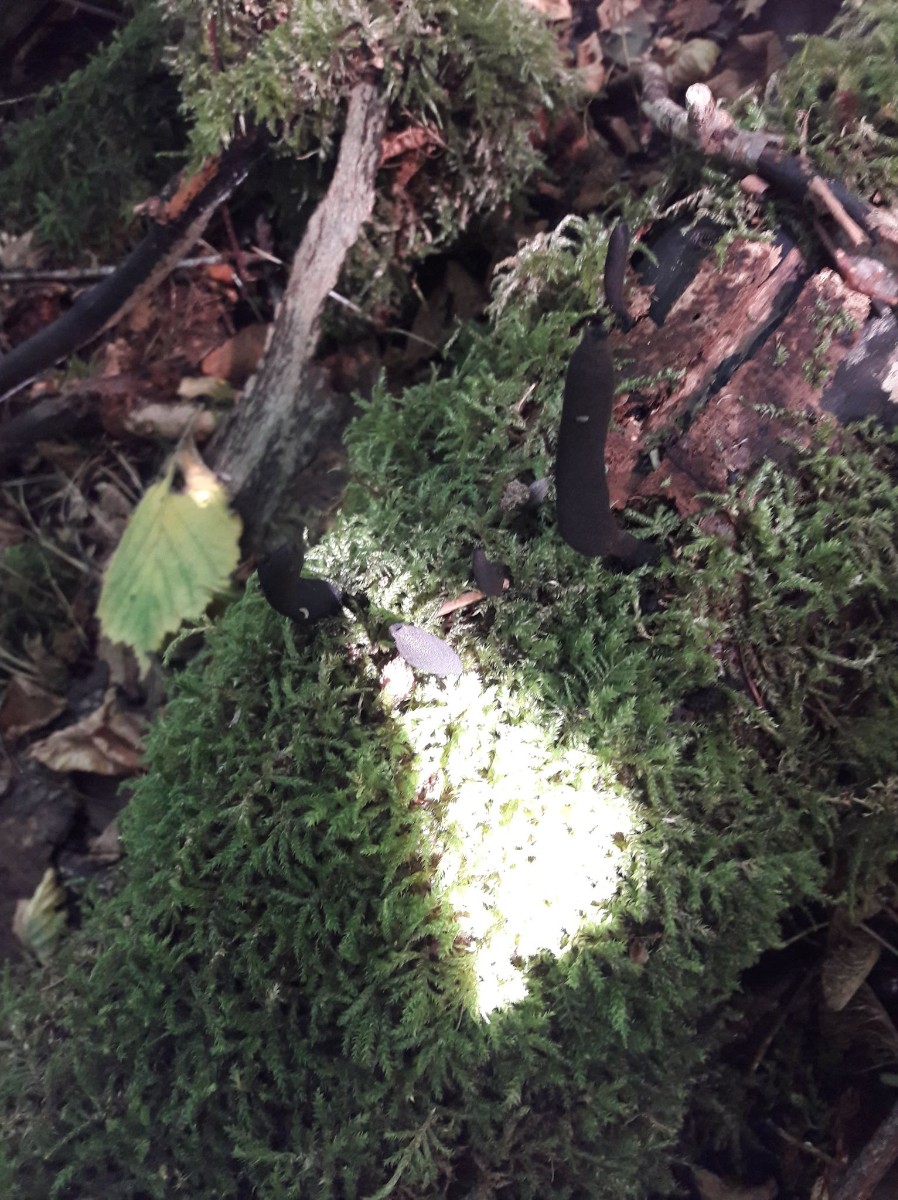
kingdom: Fungi
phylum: Ascomycota
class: Sordariomycetes
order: Xylariales
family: Xylariaceae
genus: Xylaria
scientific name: Xylaria longipes
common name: slank stødsvamp
